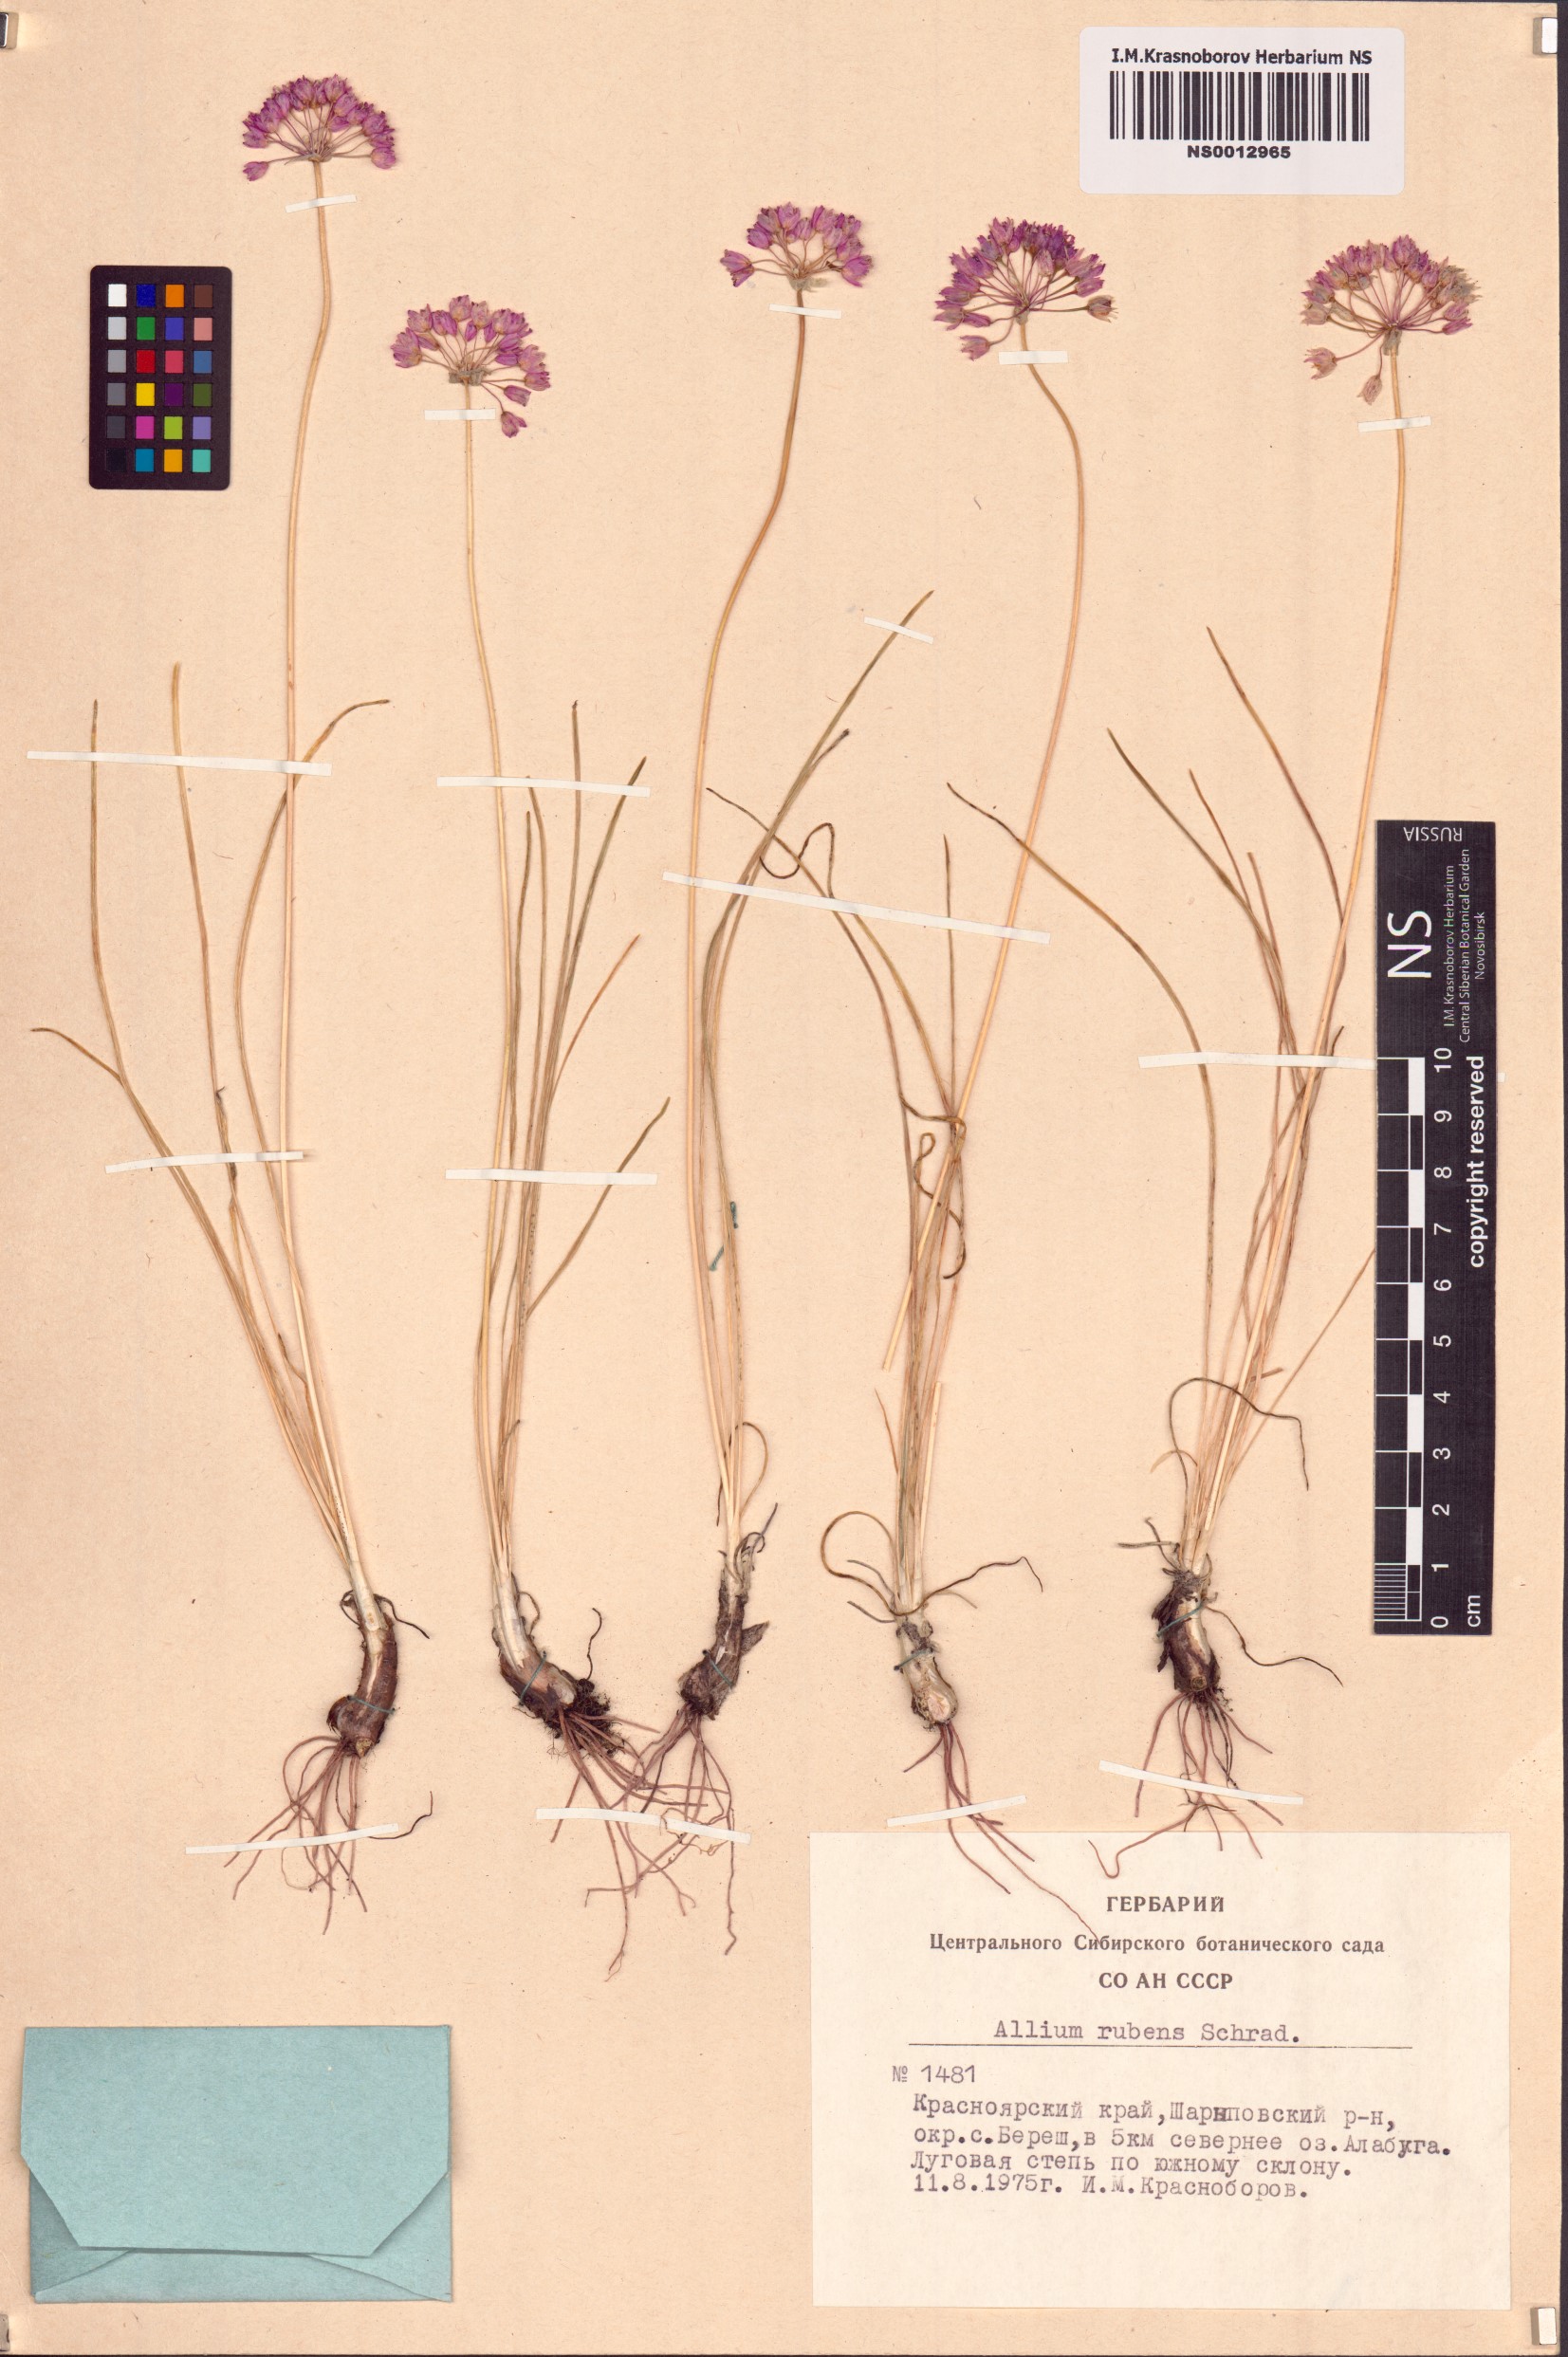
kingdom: Plantae
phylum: Tracheophyta
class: Liliopsida
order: Asparagales
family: Amaryllidaceae
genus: Allium
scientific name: Allium rubens
